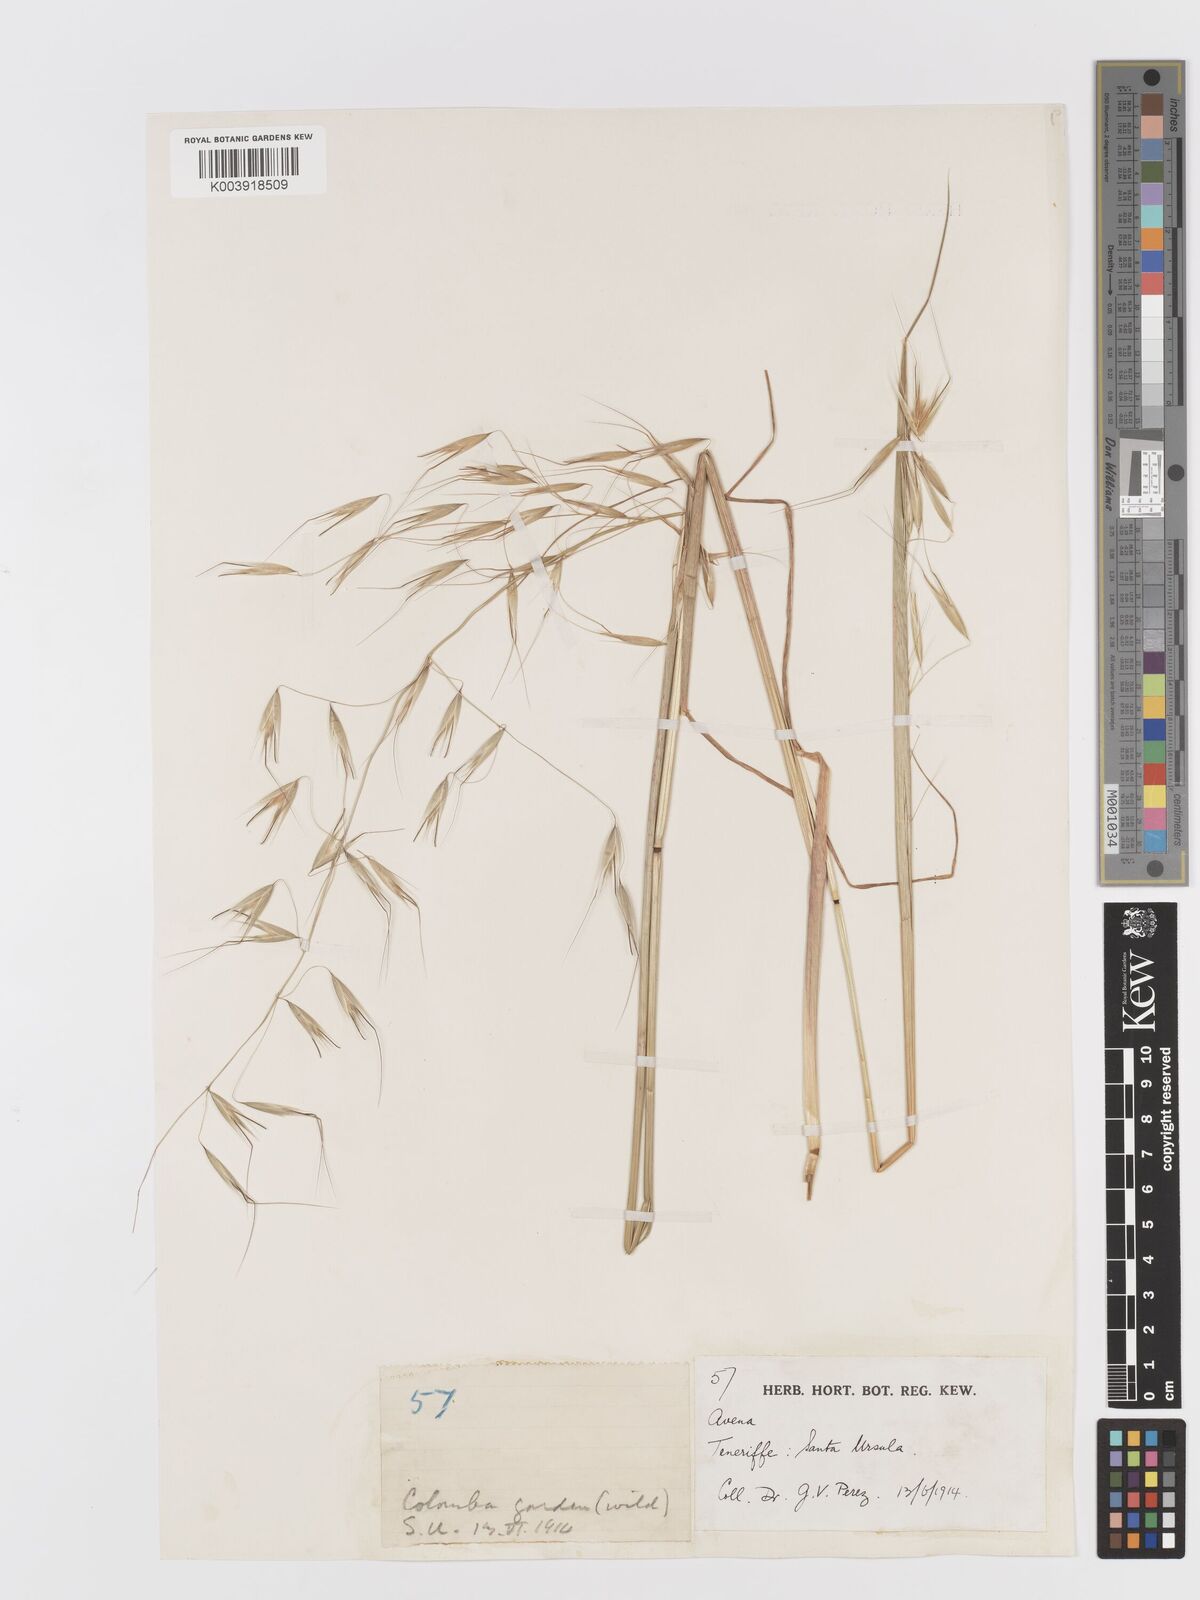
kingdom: Plantae
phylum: Tracheophyta
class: Liliopsida
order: Poales
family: Poaceae
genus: Avena
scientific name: Avena
